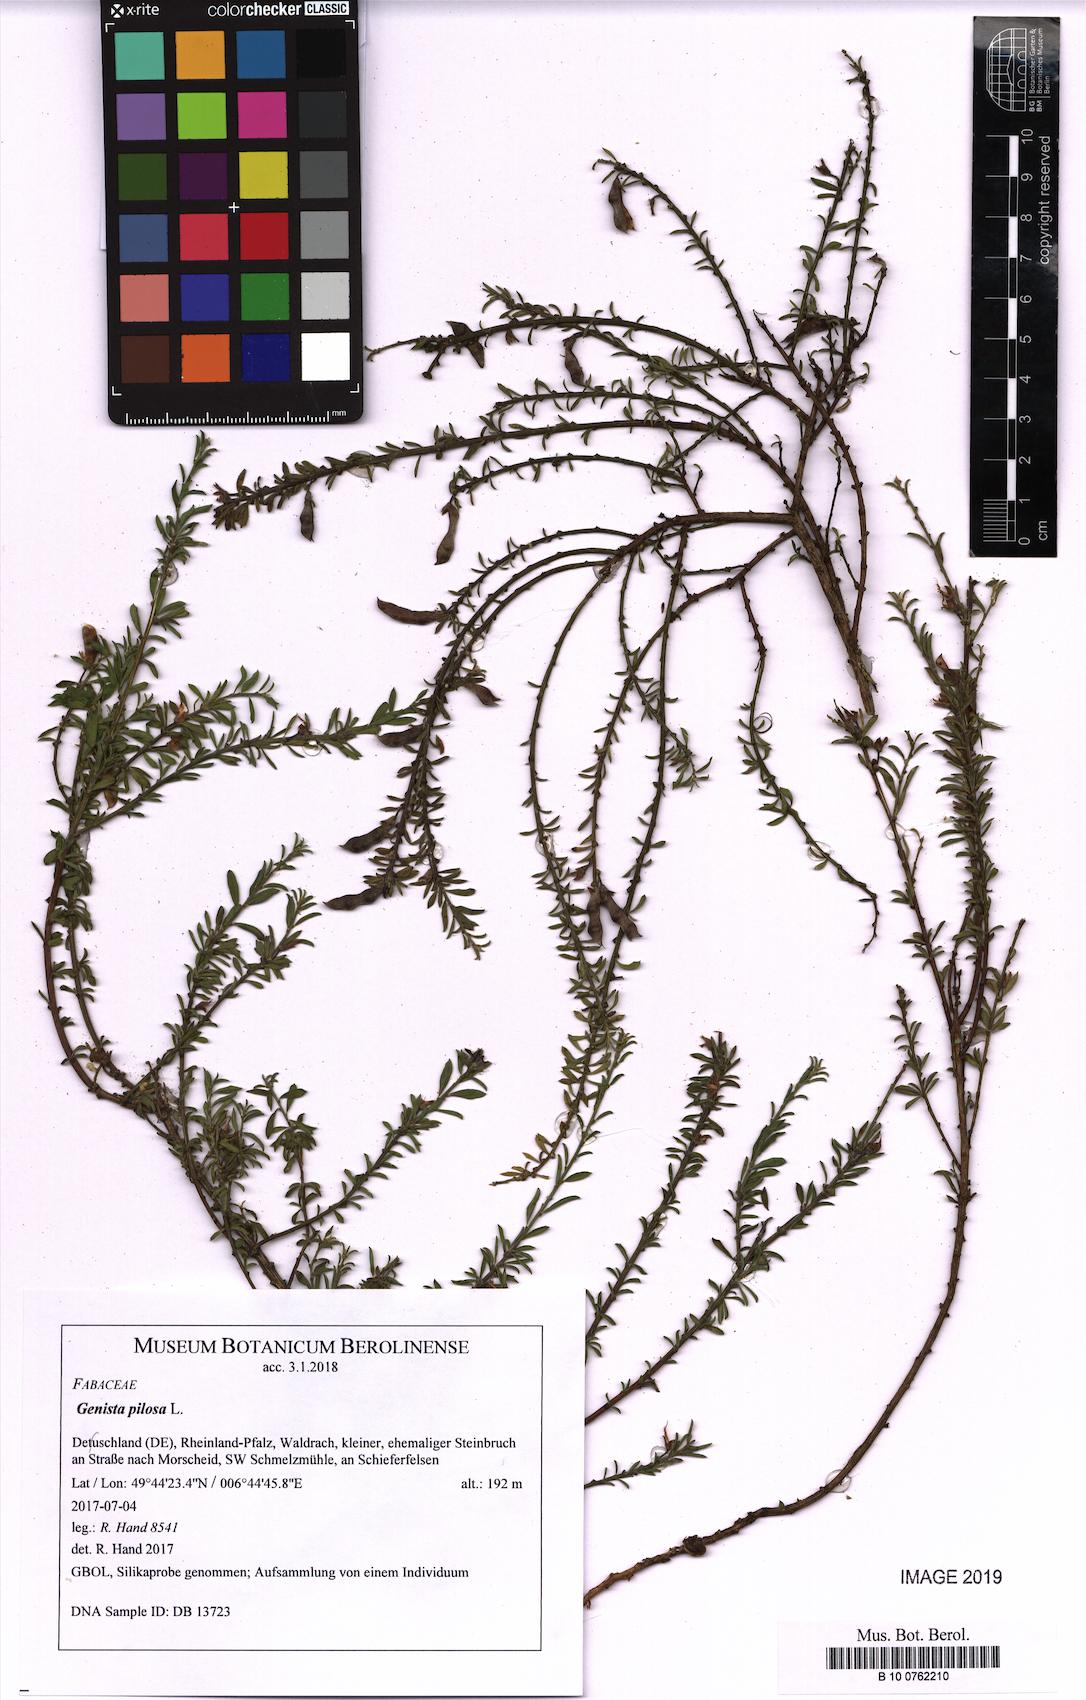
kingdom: Plantae
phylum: Tracheophyta
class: Magnoliopsida
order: Fabales
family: Fabaceae
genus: Genista
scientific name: Genista pilosa
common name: Hairy greenweed
